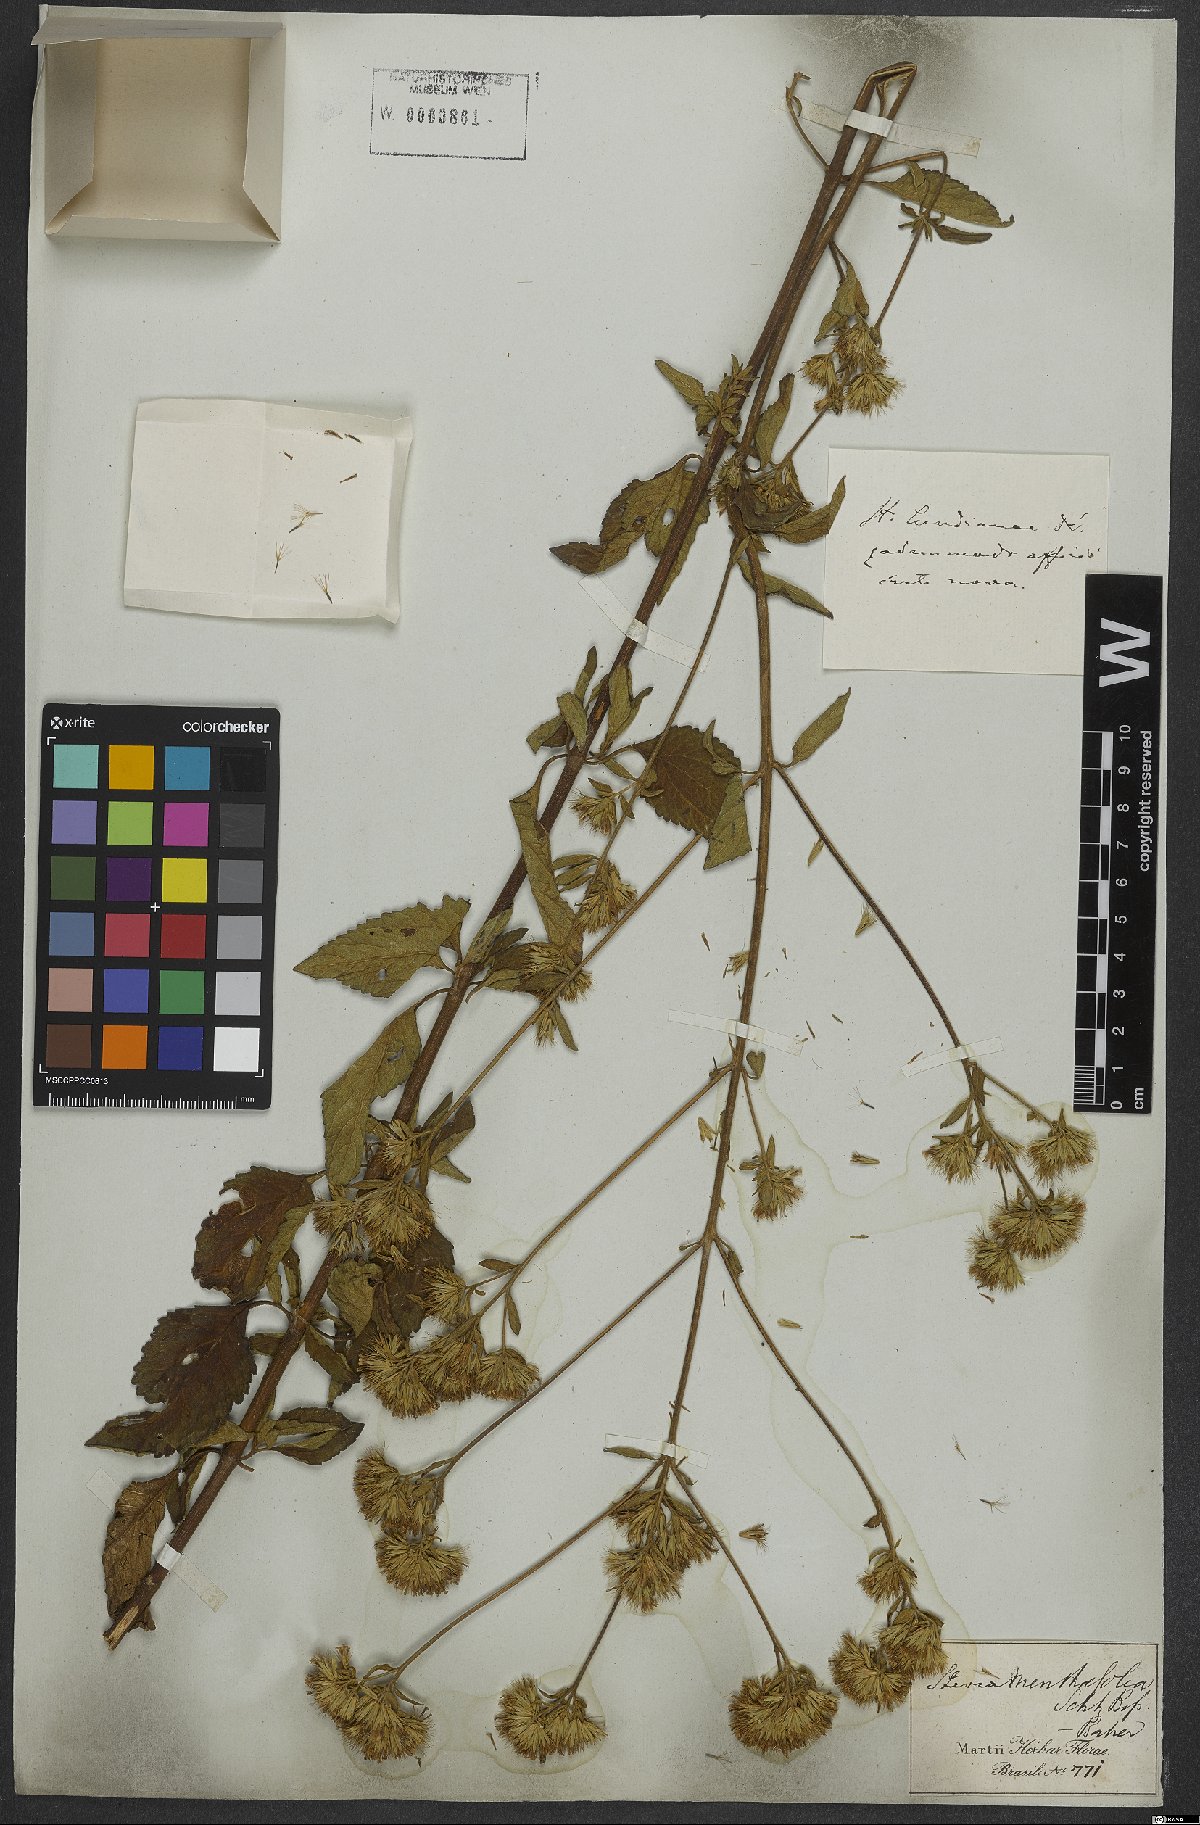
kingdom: Plantae
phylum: Tracheophyta
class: Magnoliopsida
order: Asterales
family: Asteraceae
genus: Stevia
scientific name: Stevia philippiana
